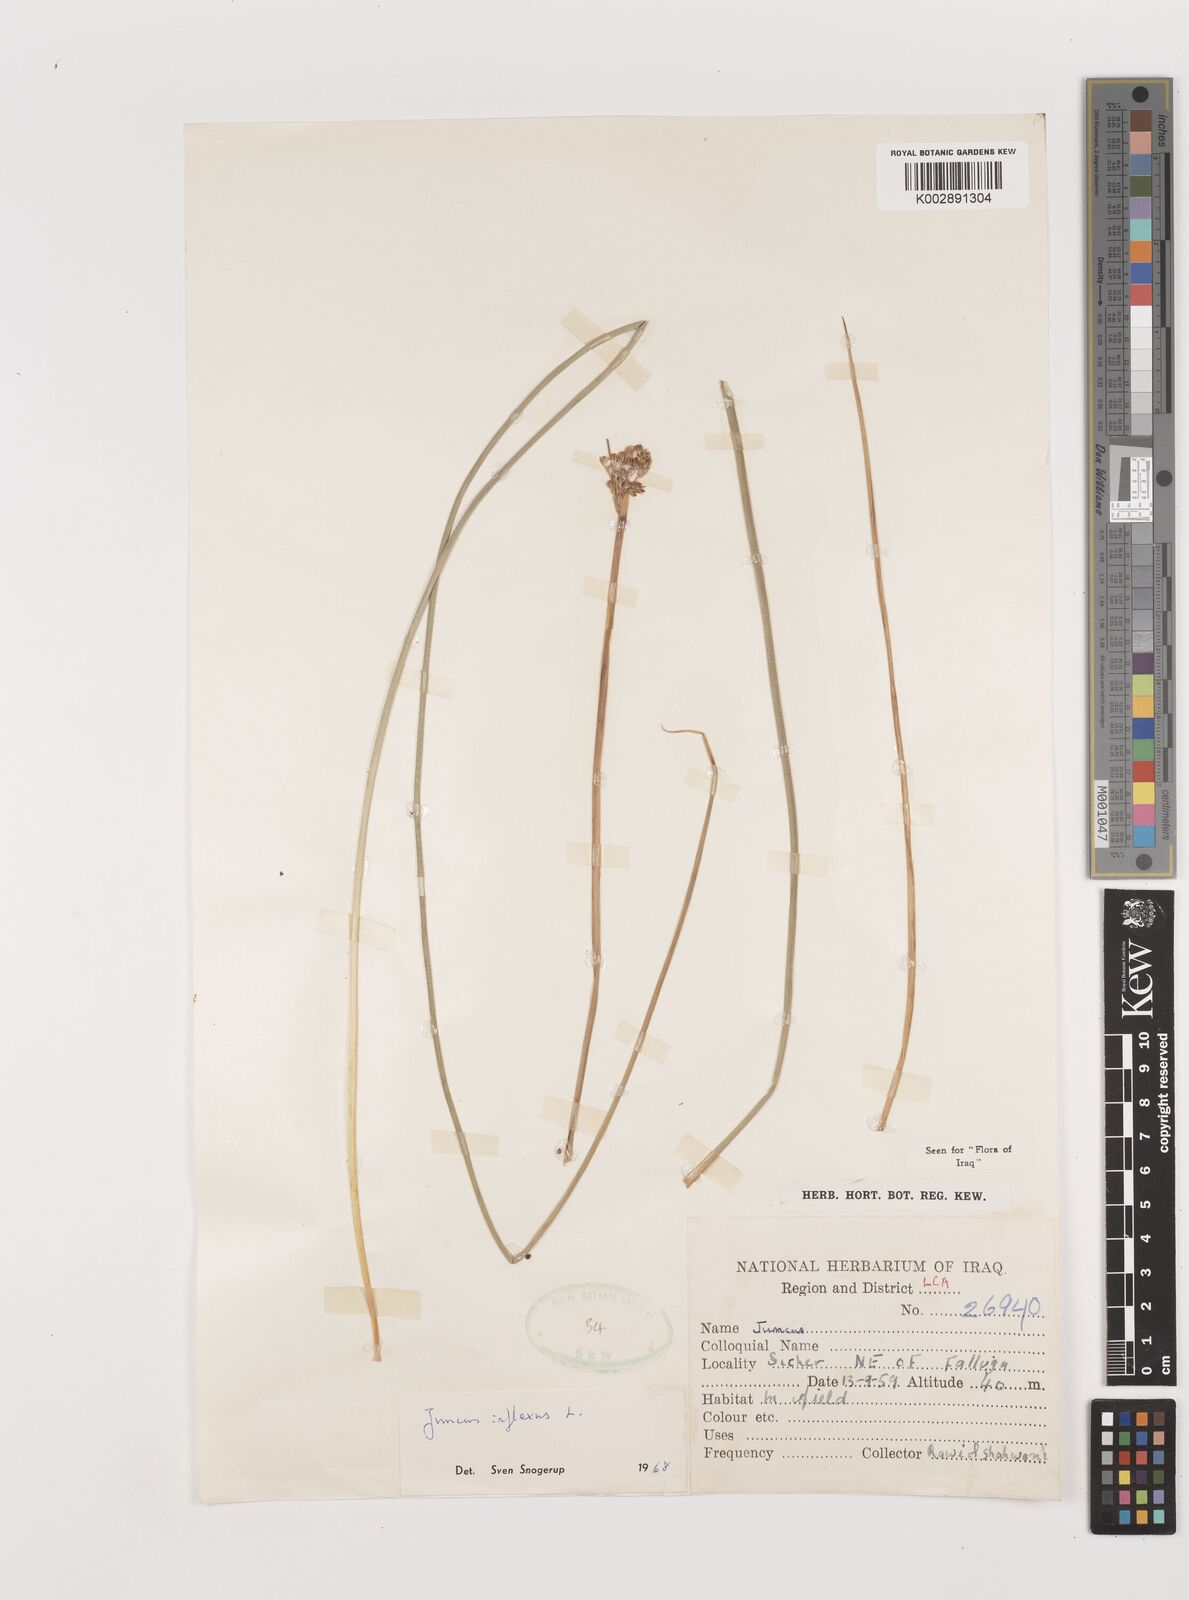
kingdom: Plantae
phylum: Tracheophyta
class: Liliopsida
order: Poales
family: Juncaceae
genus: Juncus
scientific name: Juncus inflexus
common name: Hard rush
